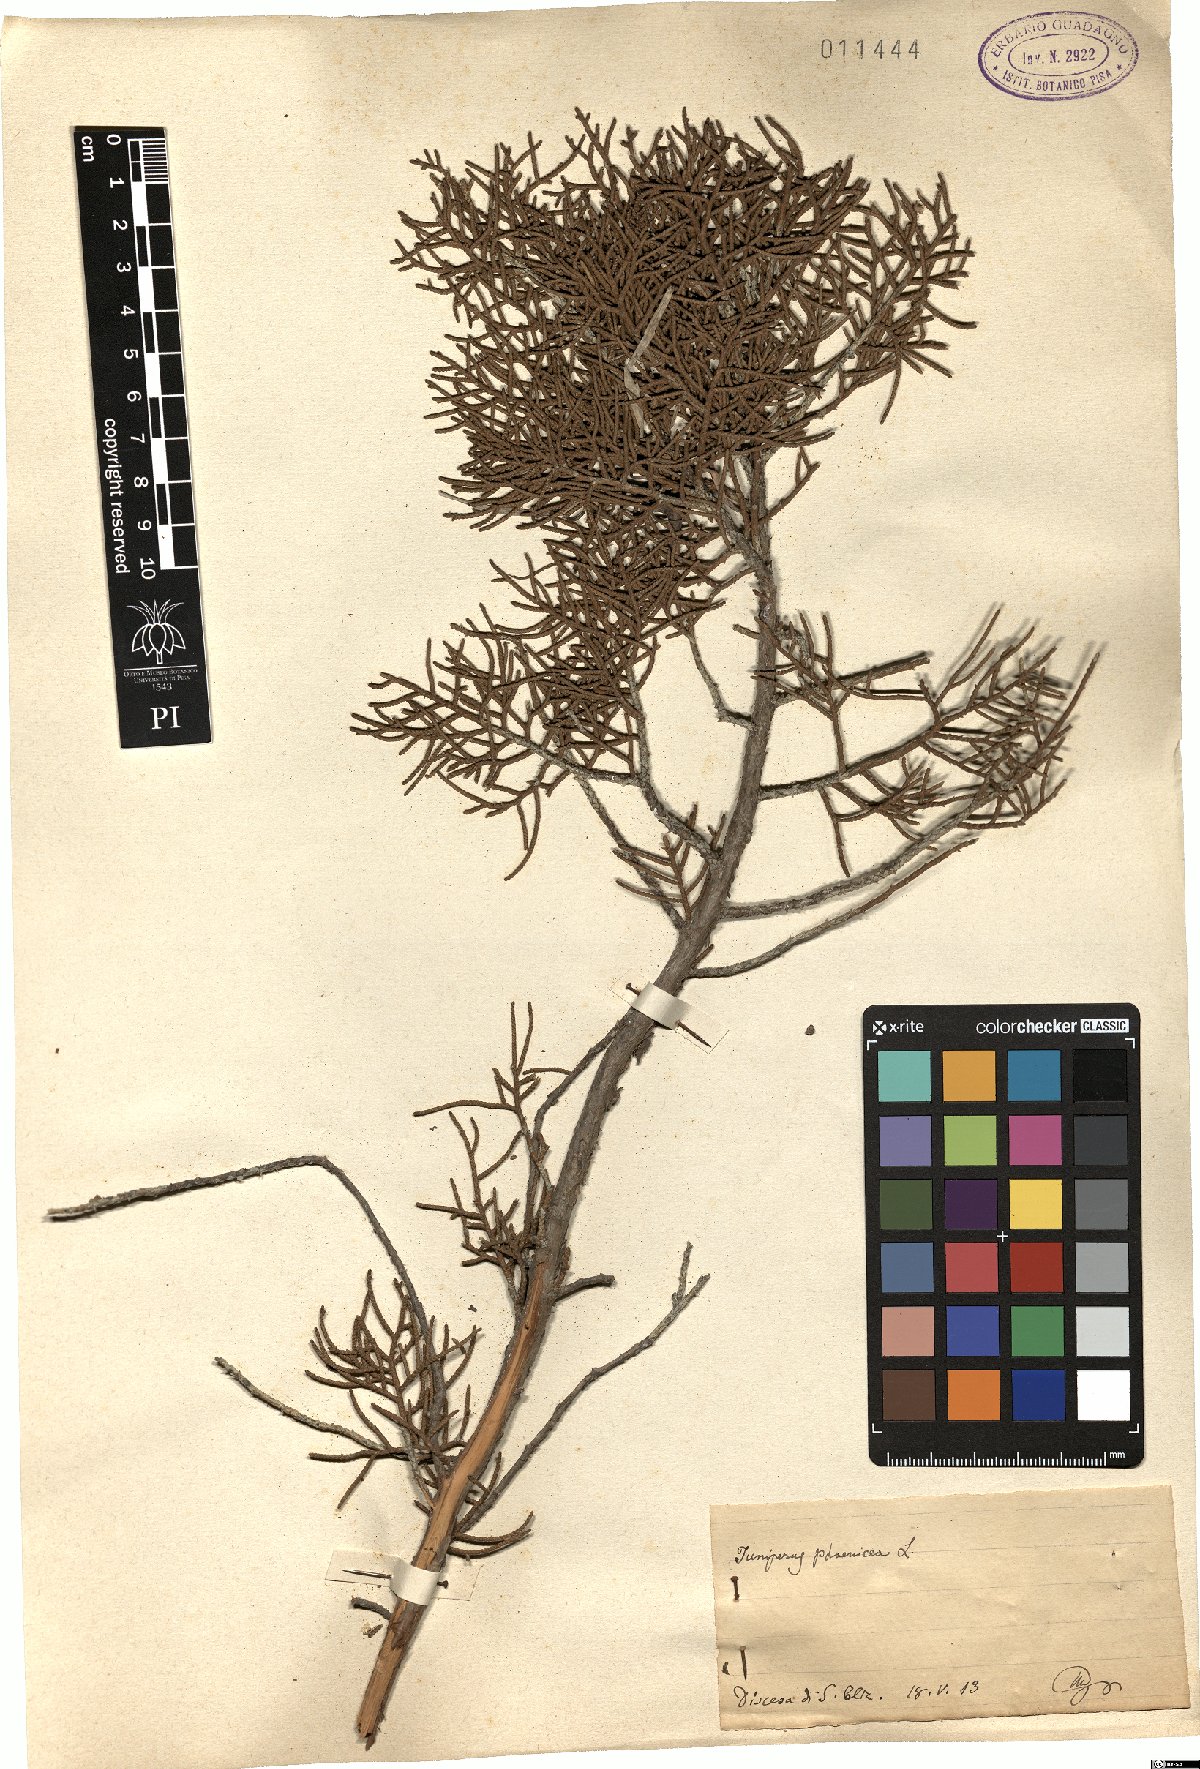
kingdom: Plantae
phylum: Tracheophyta
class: Pinopsida
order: Pinales
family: Cupressaceae
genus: Juniperus
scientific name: Juniperus phoenicea
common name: Phoenician juniper
